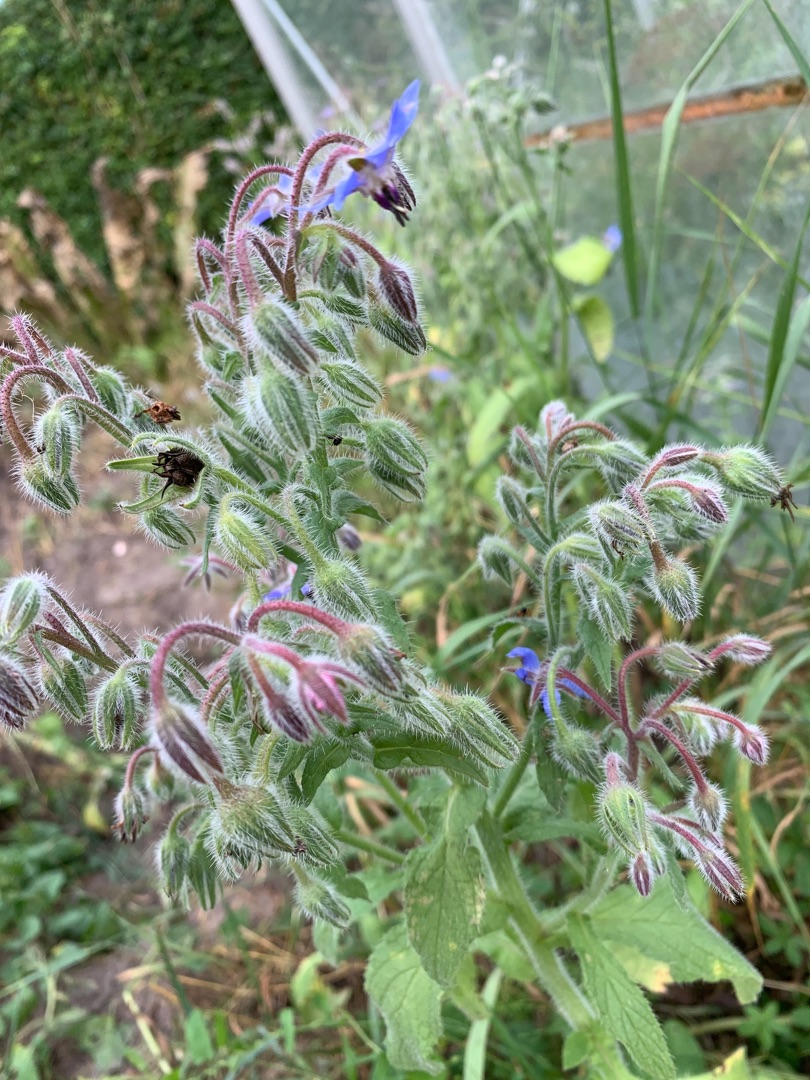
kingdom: Plantae
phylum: Tracheophyta
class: Magnoliopsida
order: Boraginales
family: Boraginaceae
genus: Borago
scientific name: Borago officinalis
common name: Hjulkrone
